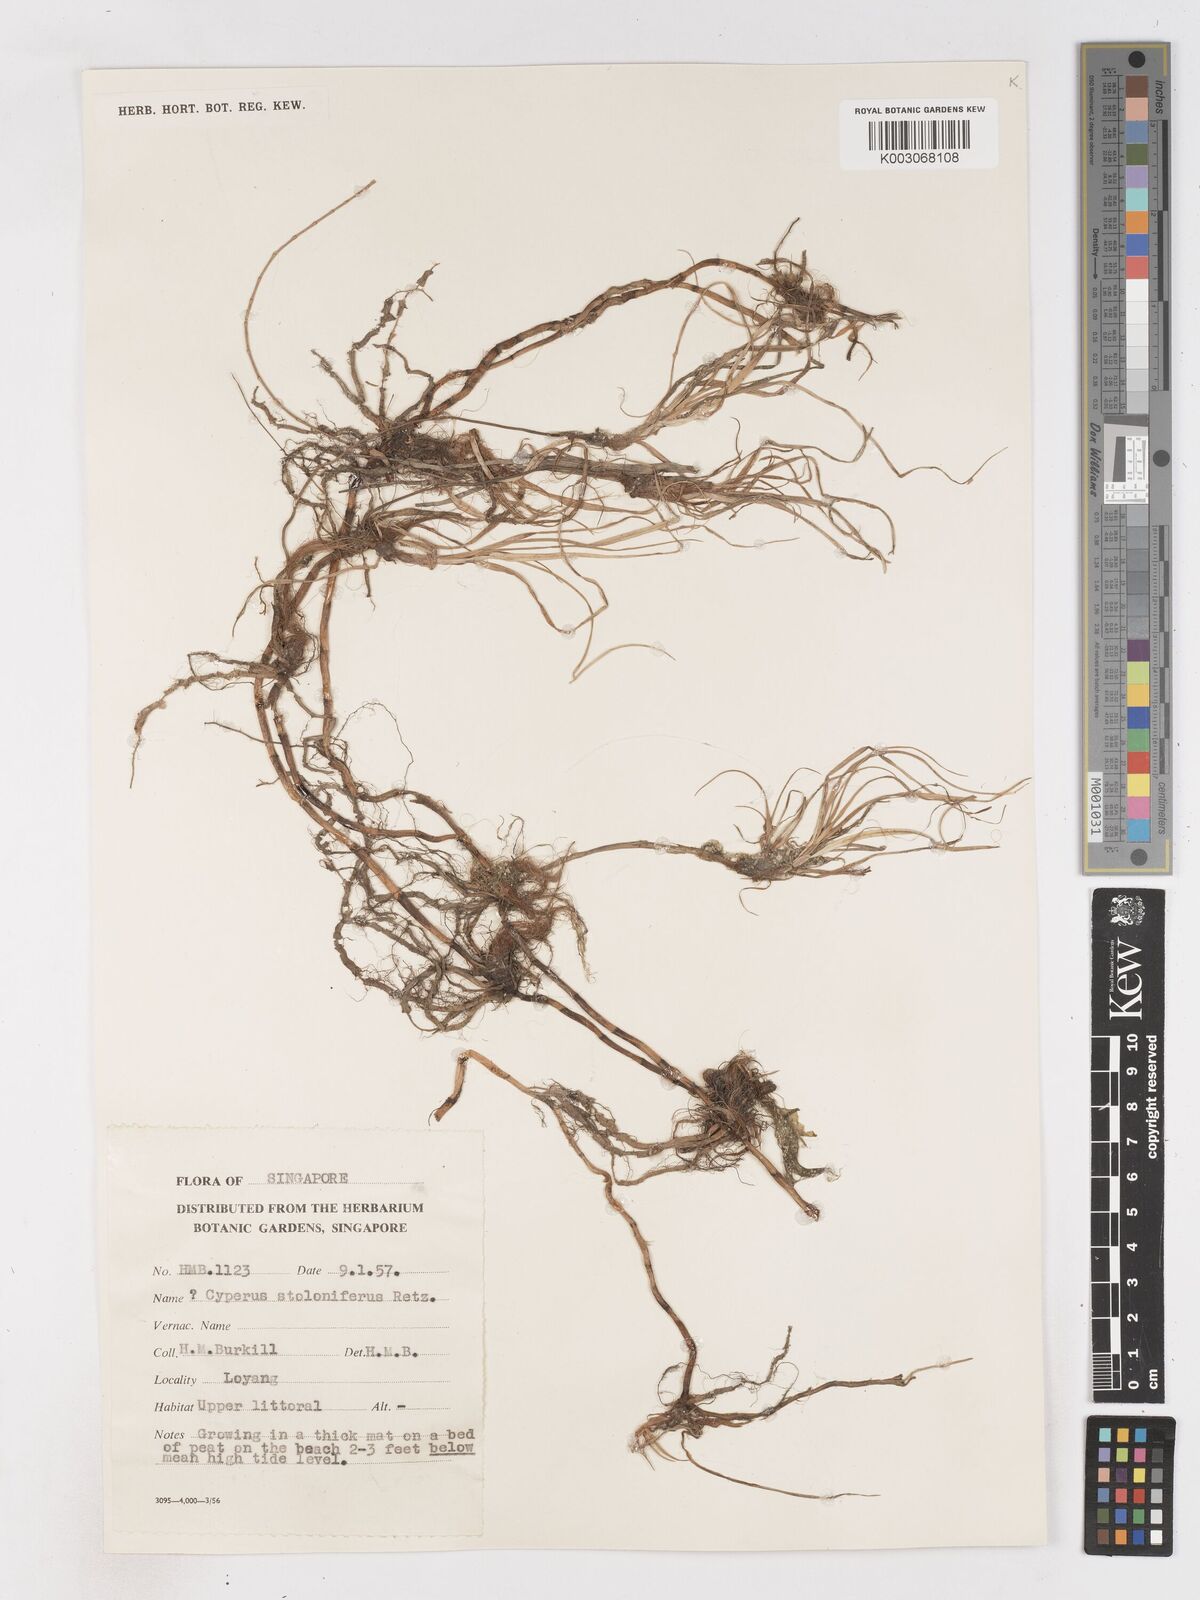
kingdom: Plantae
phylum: Tracheophyta
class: Liliopsida
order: Poales
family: Cyperaceae
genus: Cyperus
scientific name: Cyperus bulbosus
